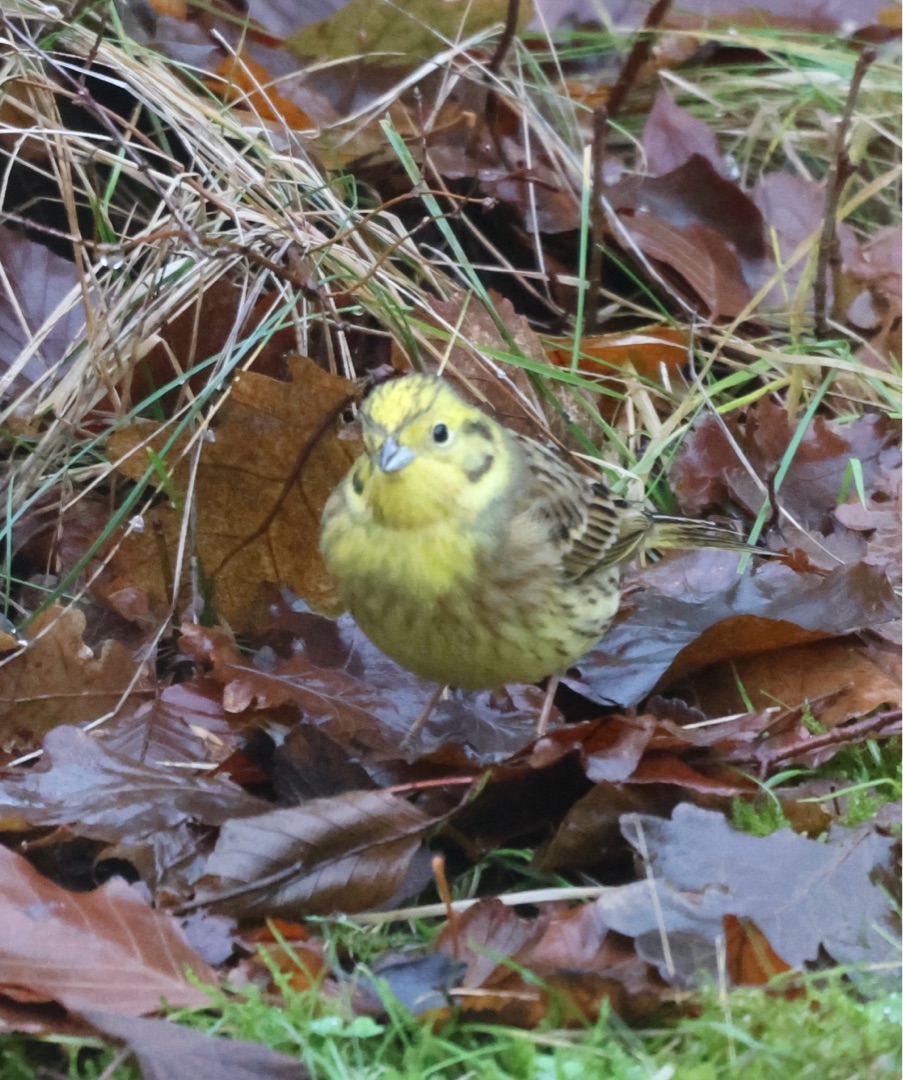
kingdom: Animalia
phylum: Chordata
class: Aves
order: Passeriformes
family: Emberizidae
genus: Emberiza
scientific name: Emberiza citrinella
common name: Gulspurv
